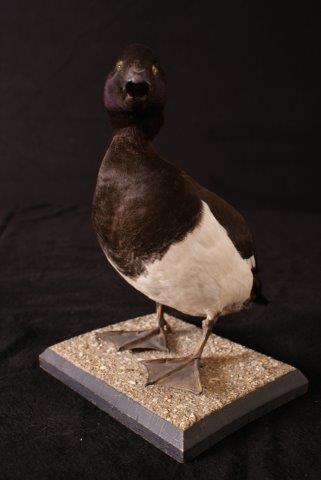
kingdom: Animalia
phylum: Chordata
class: Aves
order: Anseriformes
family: Anatidae
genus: Aythya
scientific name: Aythya fuligula
